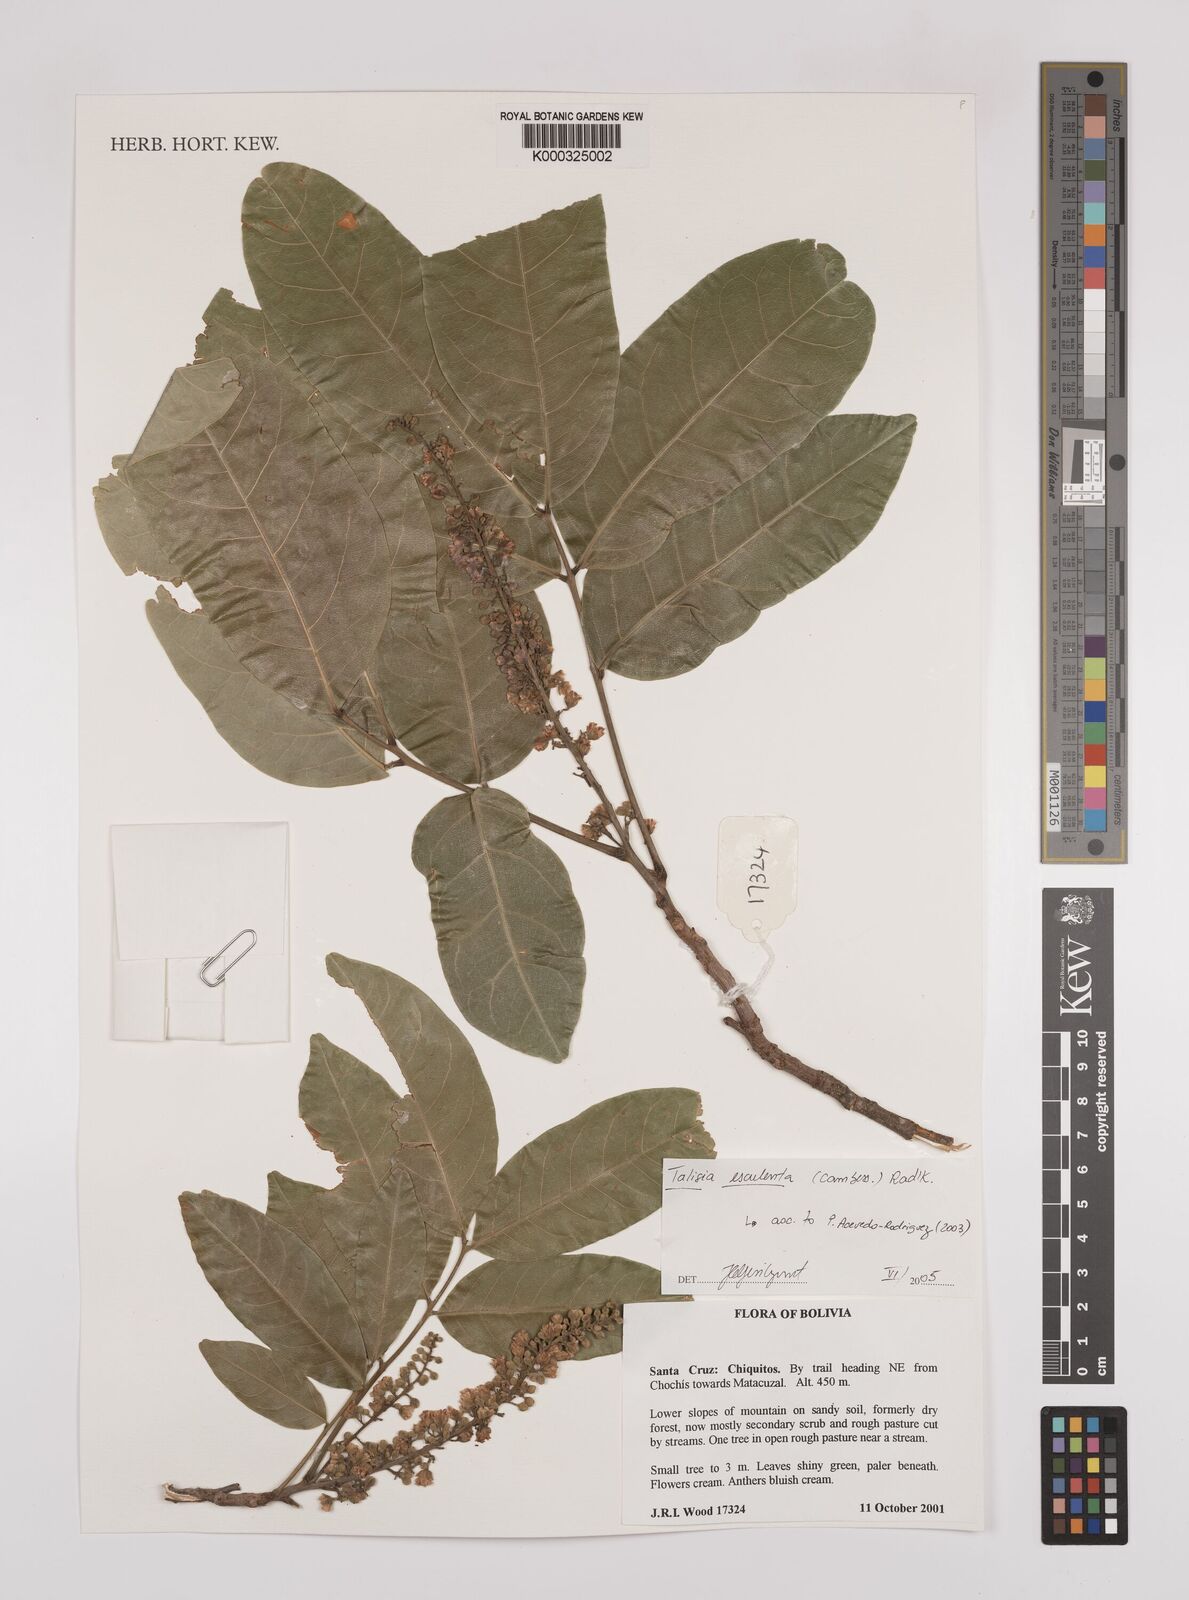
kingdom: Plantae
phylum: Tracheophyta
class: Magnoliopsida
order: Sapindales
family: Sapindaceae
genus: Talisia
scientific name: Talisia
